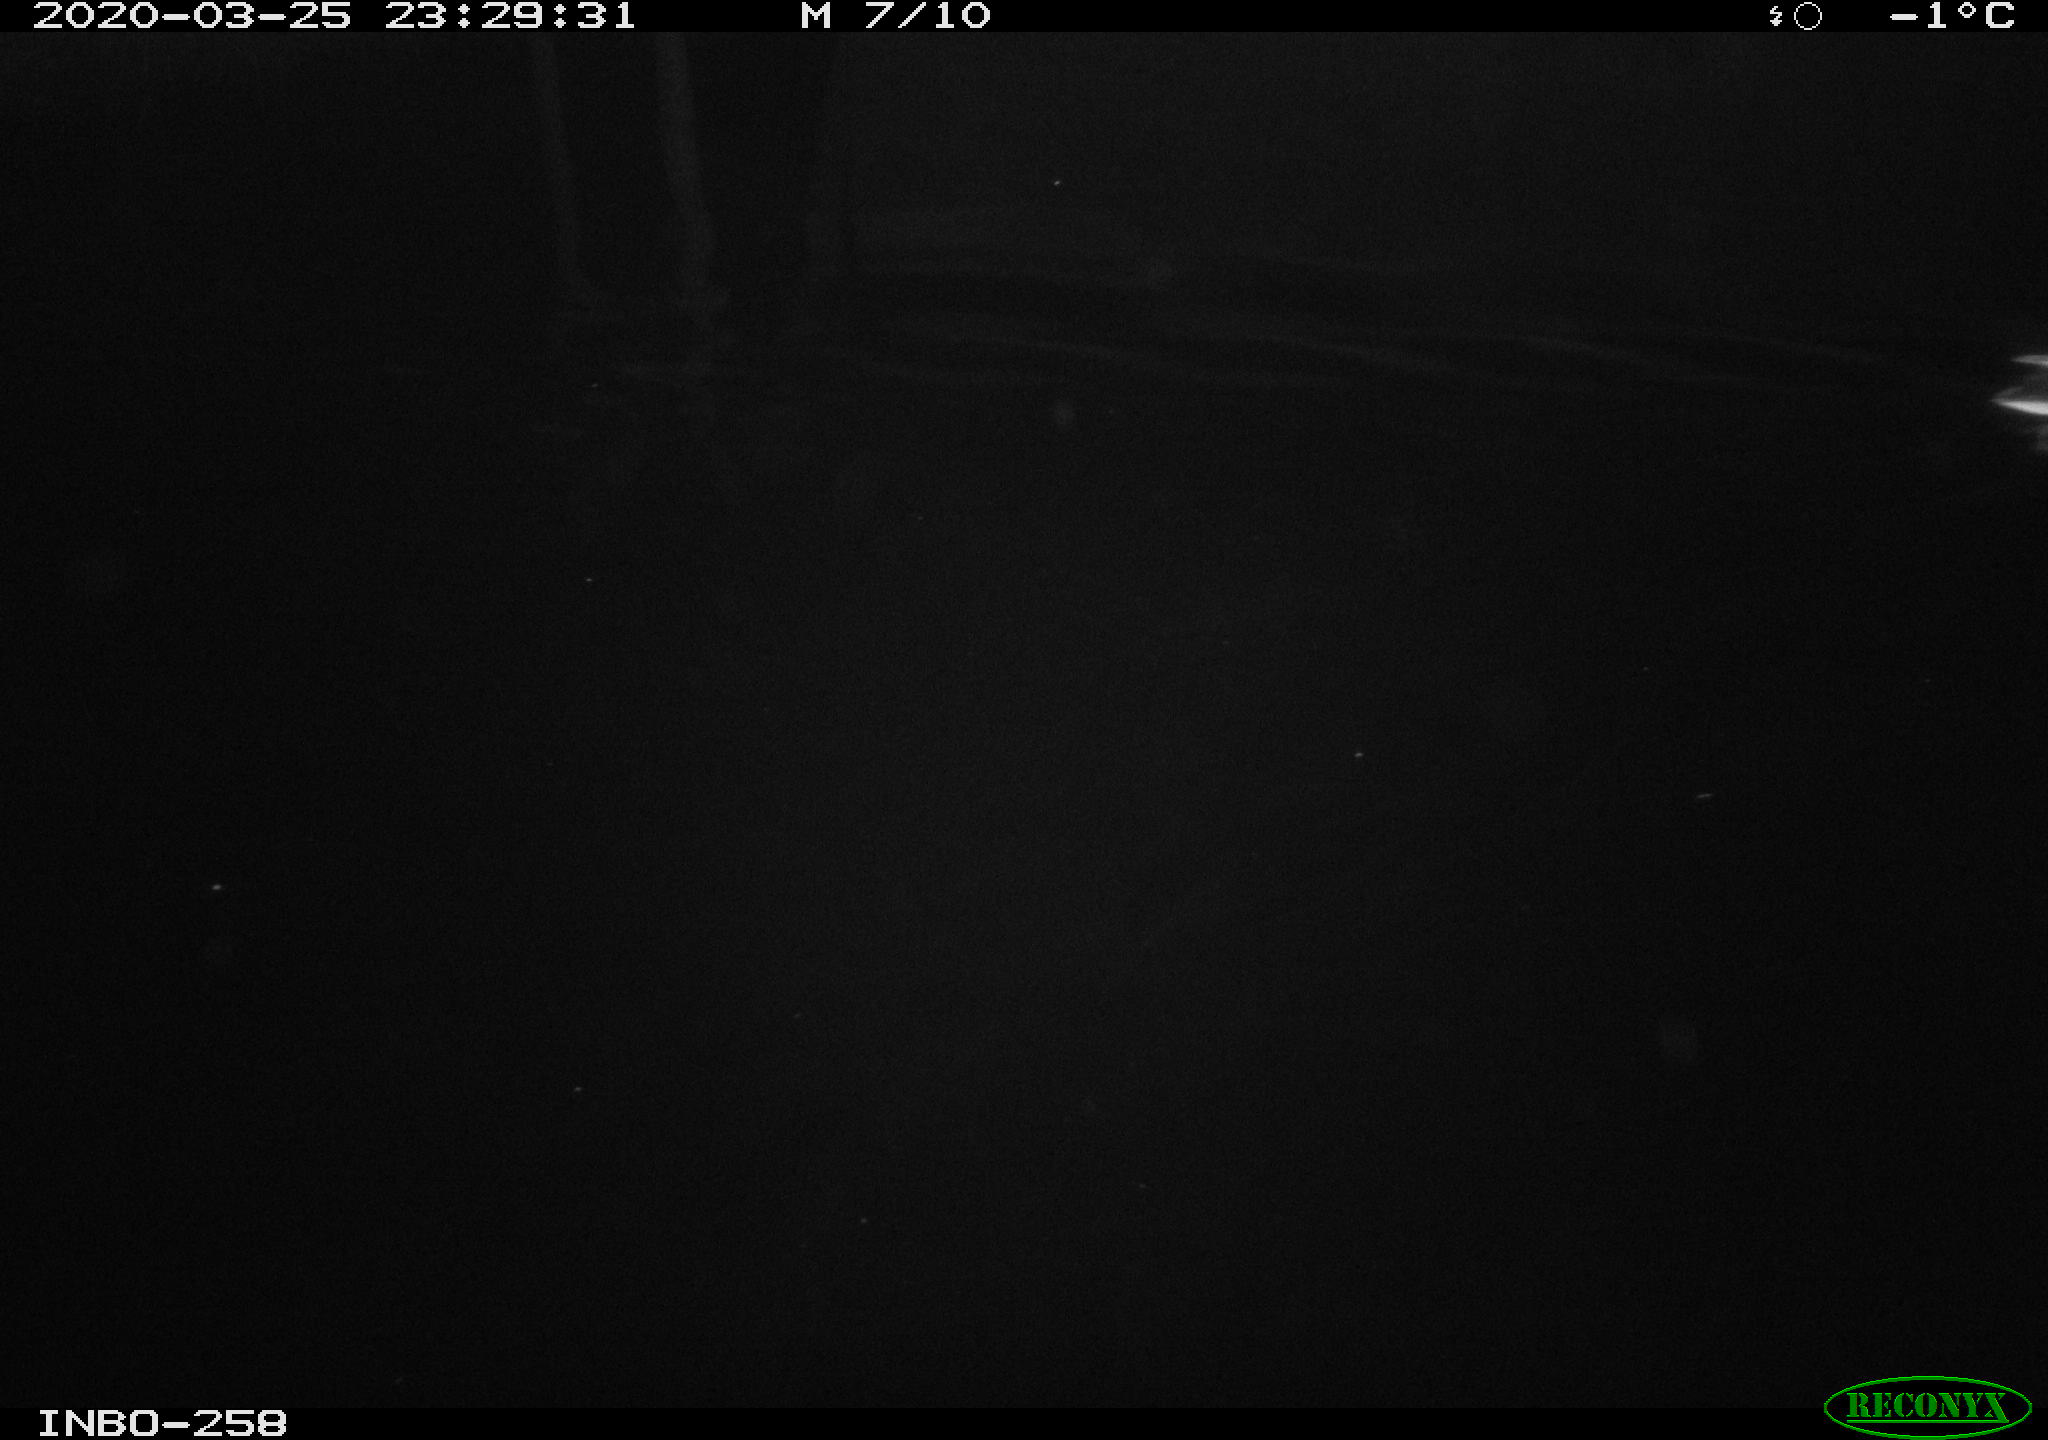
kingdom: Animalia
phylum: Chordata
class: Aves
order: Anseriformes
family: Anatidae
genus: Anas
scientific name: Anas platyrhynchos
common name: Mallard
